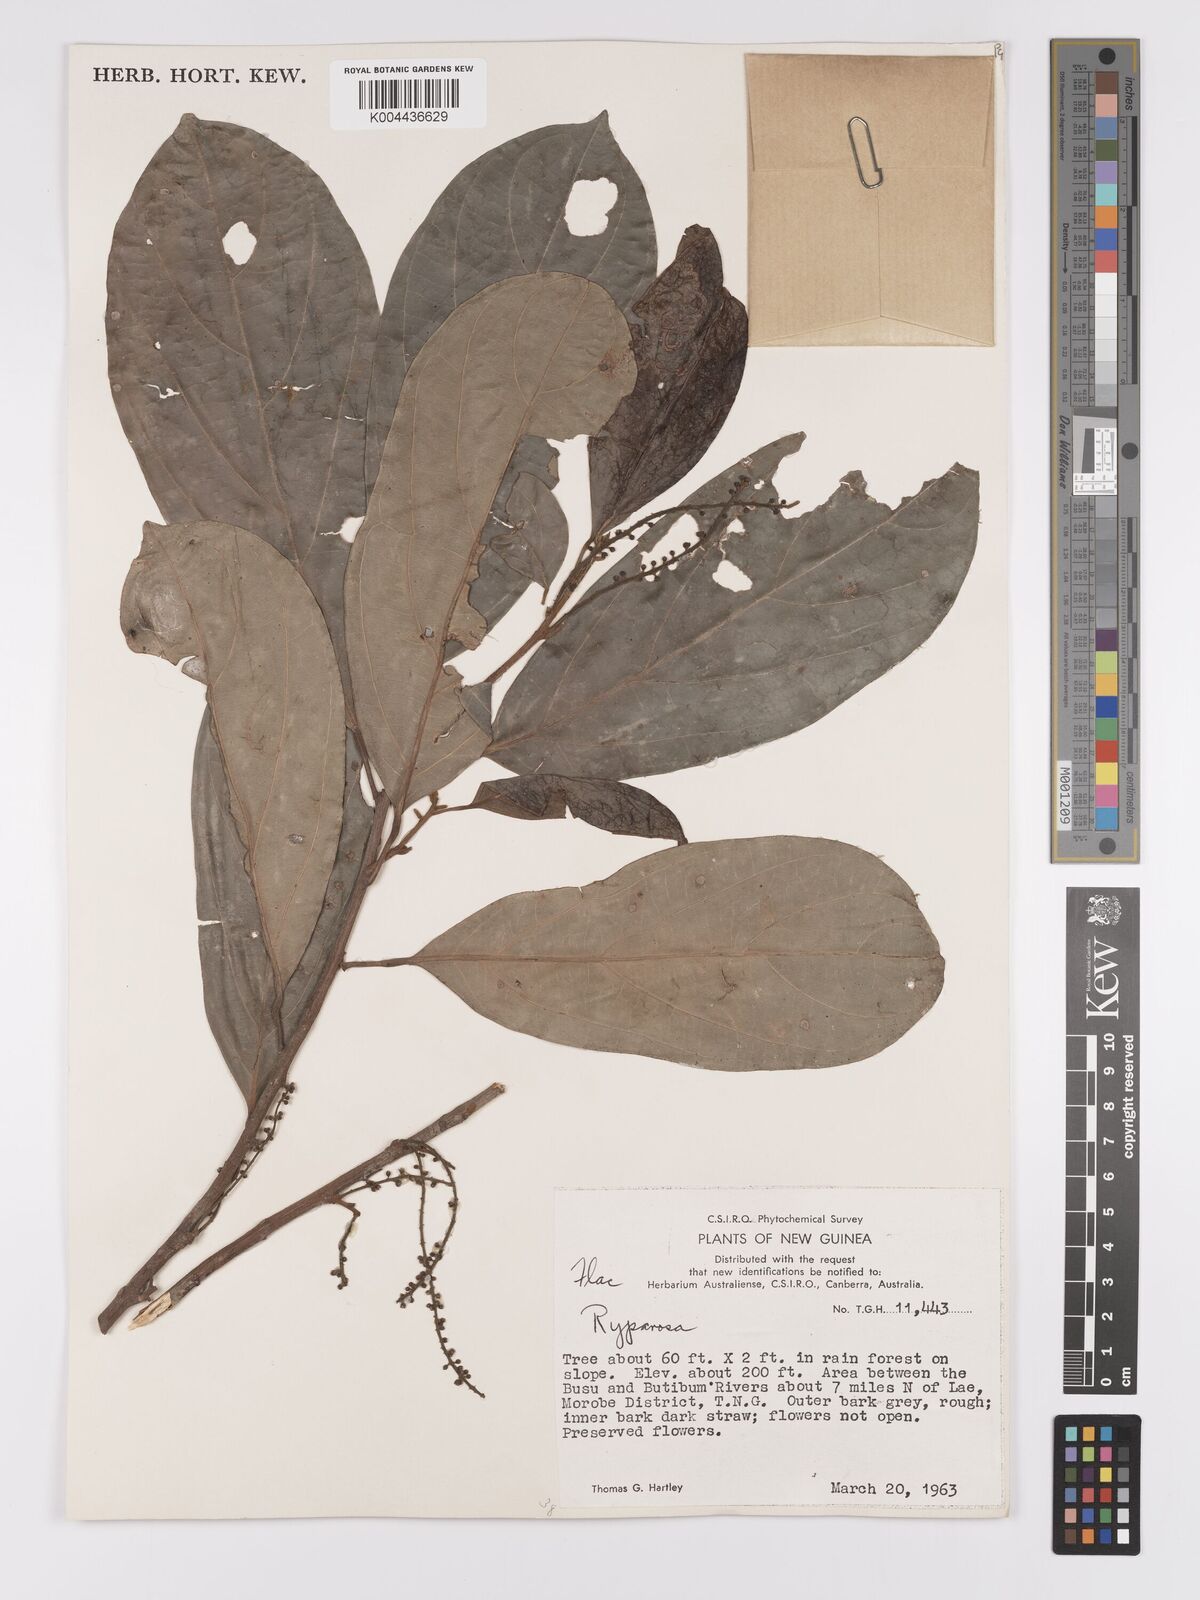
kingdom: Plantae
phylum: Tracheophyta
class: Magnoliopsida
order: Malpighiales
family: Achariaceae
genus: Ryparosa
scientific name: Ryparosa
